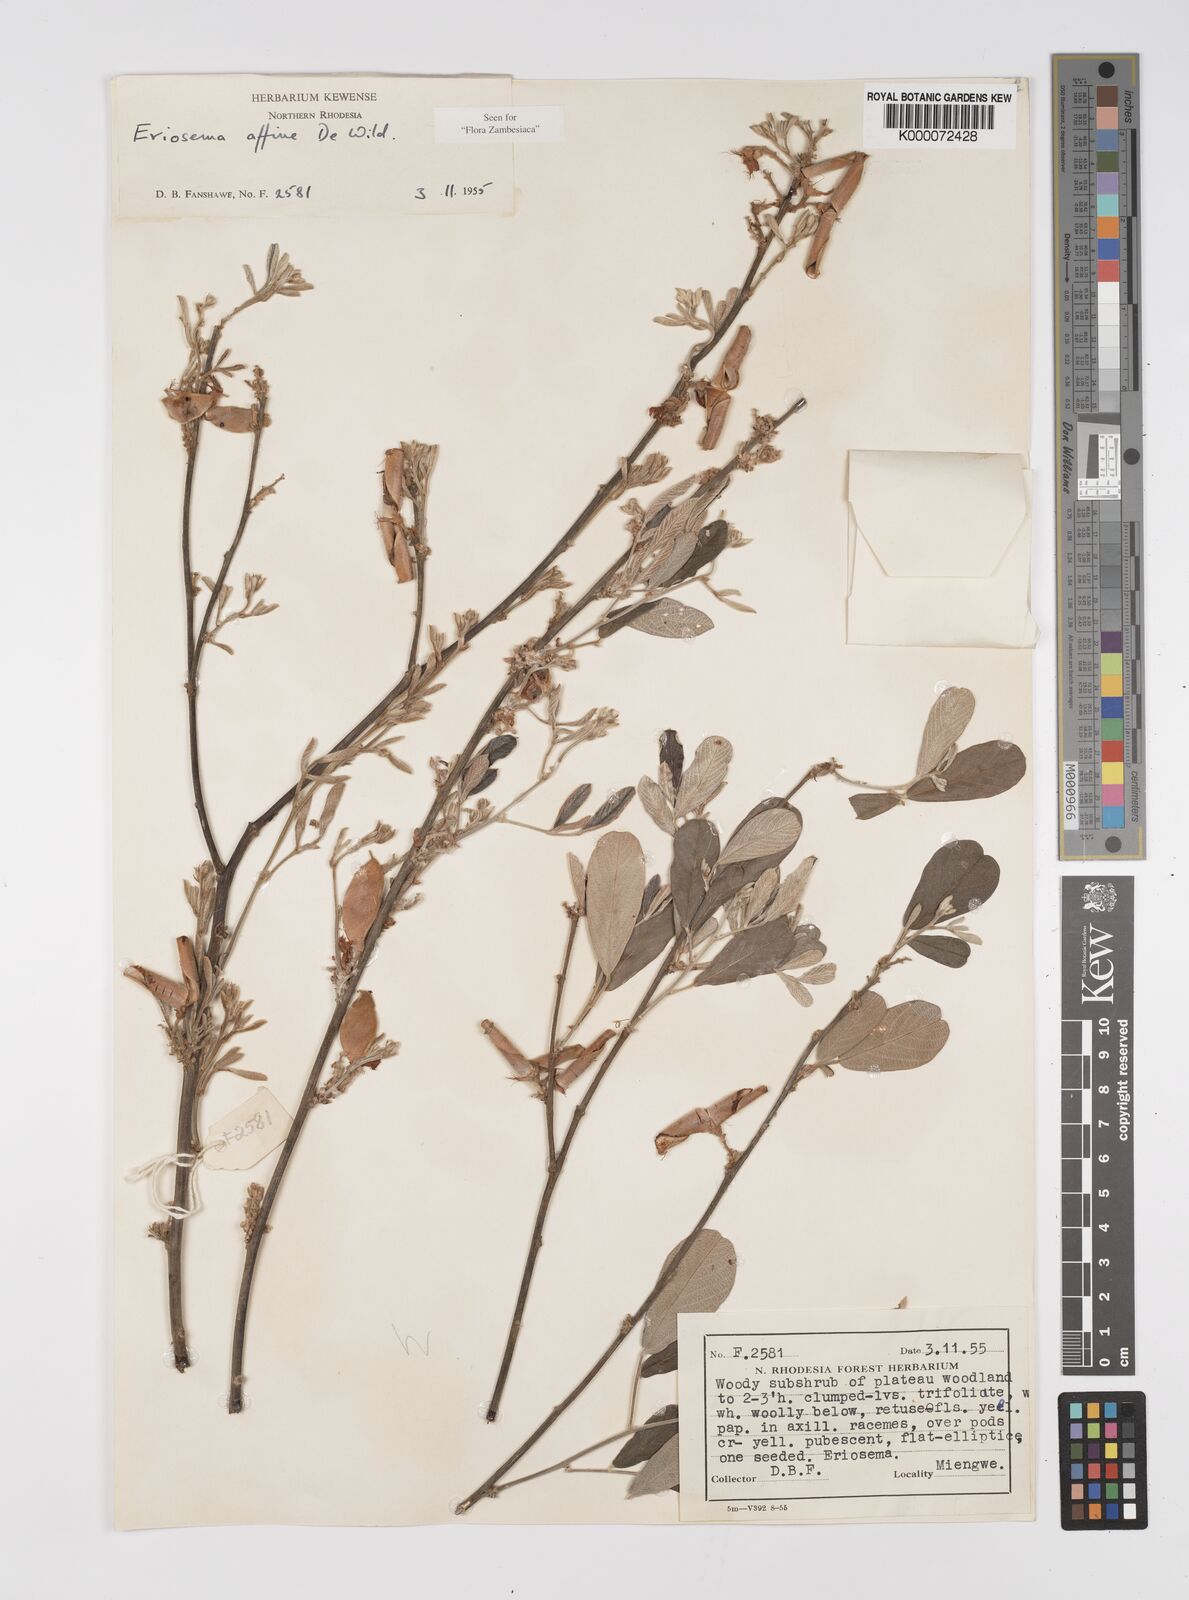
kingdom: Plantae
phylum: Tracheophyta
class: Magnoliopsida
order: Fabales
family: Fabaceae
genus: Eriosema
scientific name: Eriosema affine
